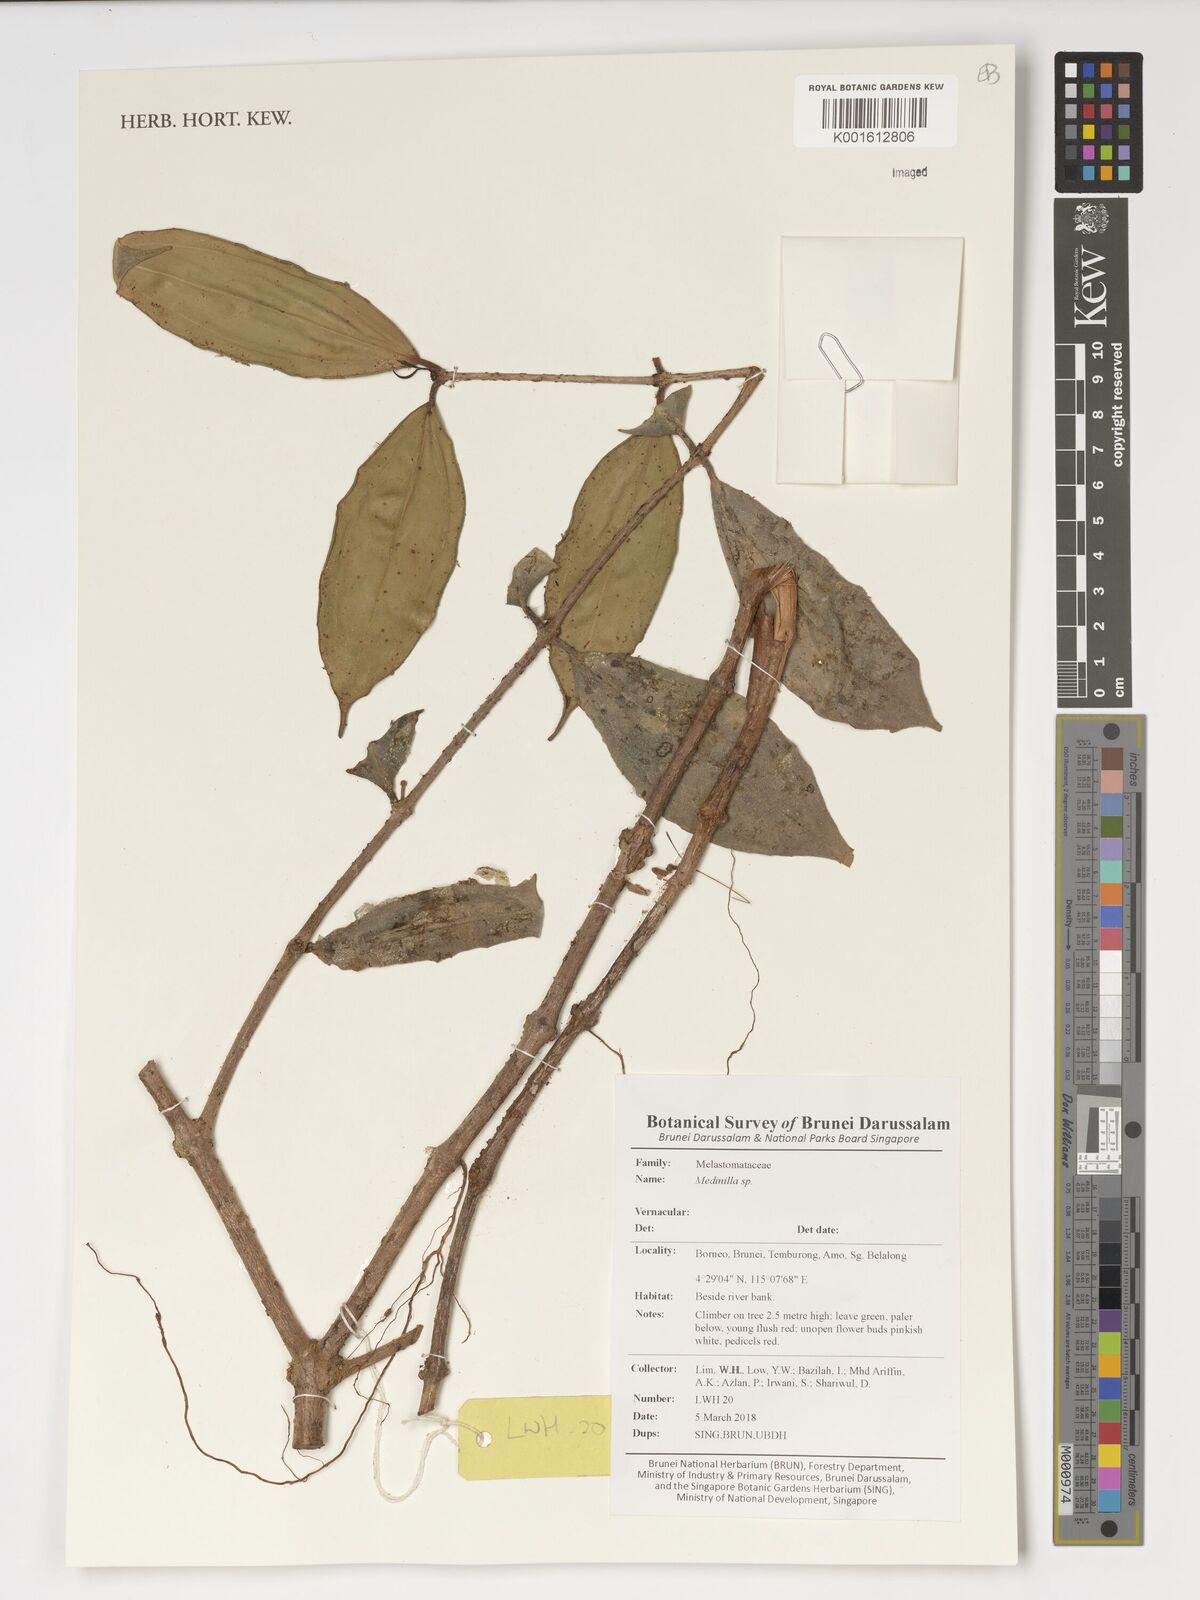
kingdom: Plantae
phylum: Tracheophyta
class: Magnoliopsida
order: Myrtales
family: Melastomataceae
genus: Medinilla
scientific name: Medinilla
